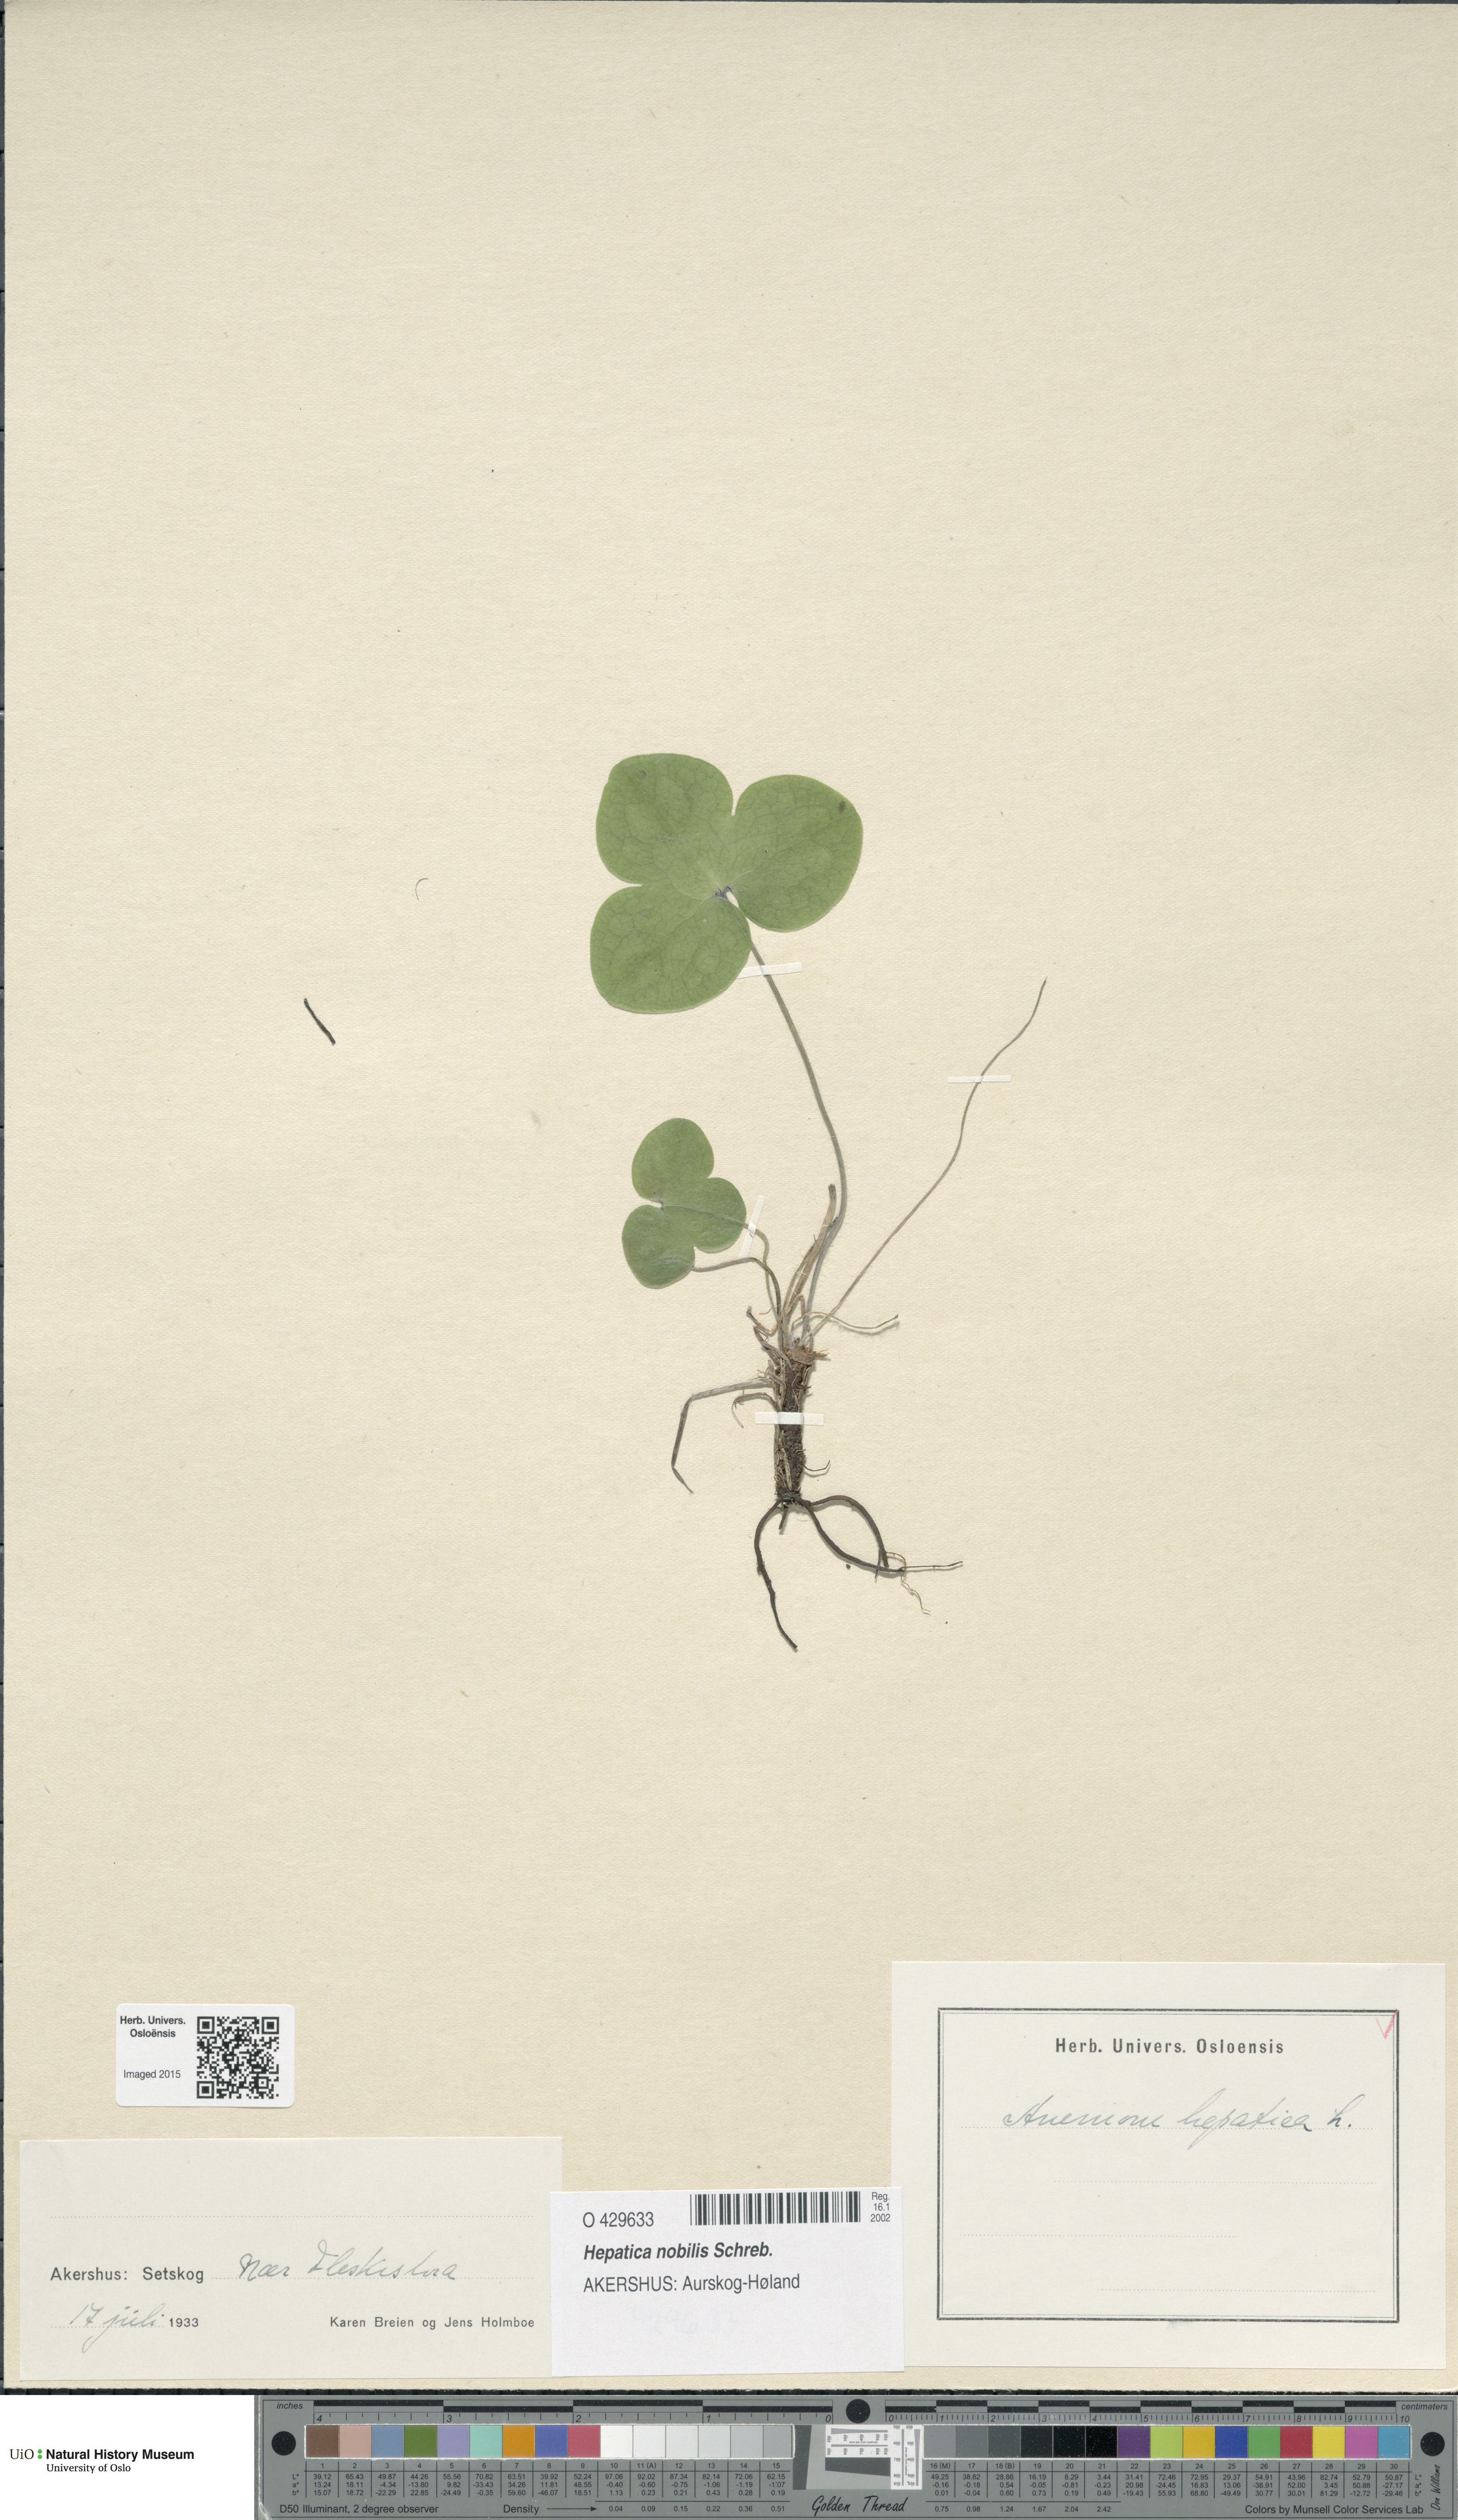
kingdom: Plantae
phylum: Tracheophyta
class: Magnoliopsida
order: Ranunculales
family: Ranunculaceae
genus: Hepatica
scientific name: Hepatica nobilis
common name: Liverleaf
